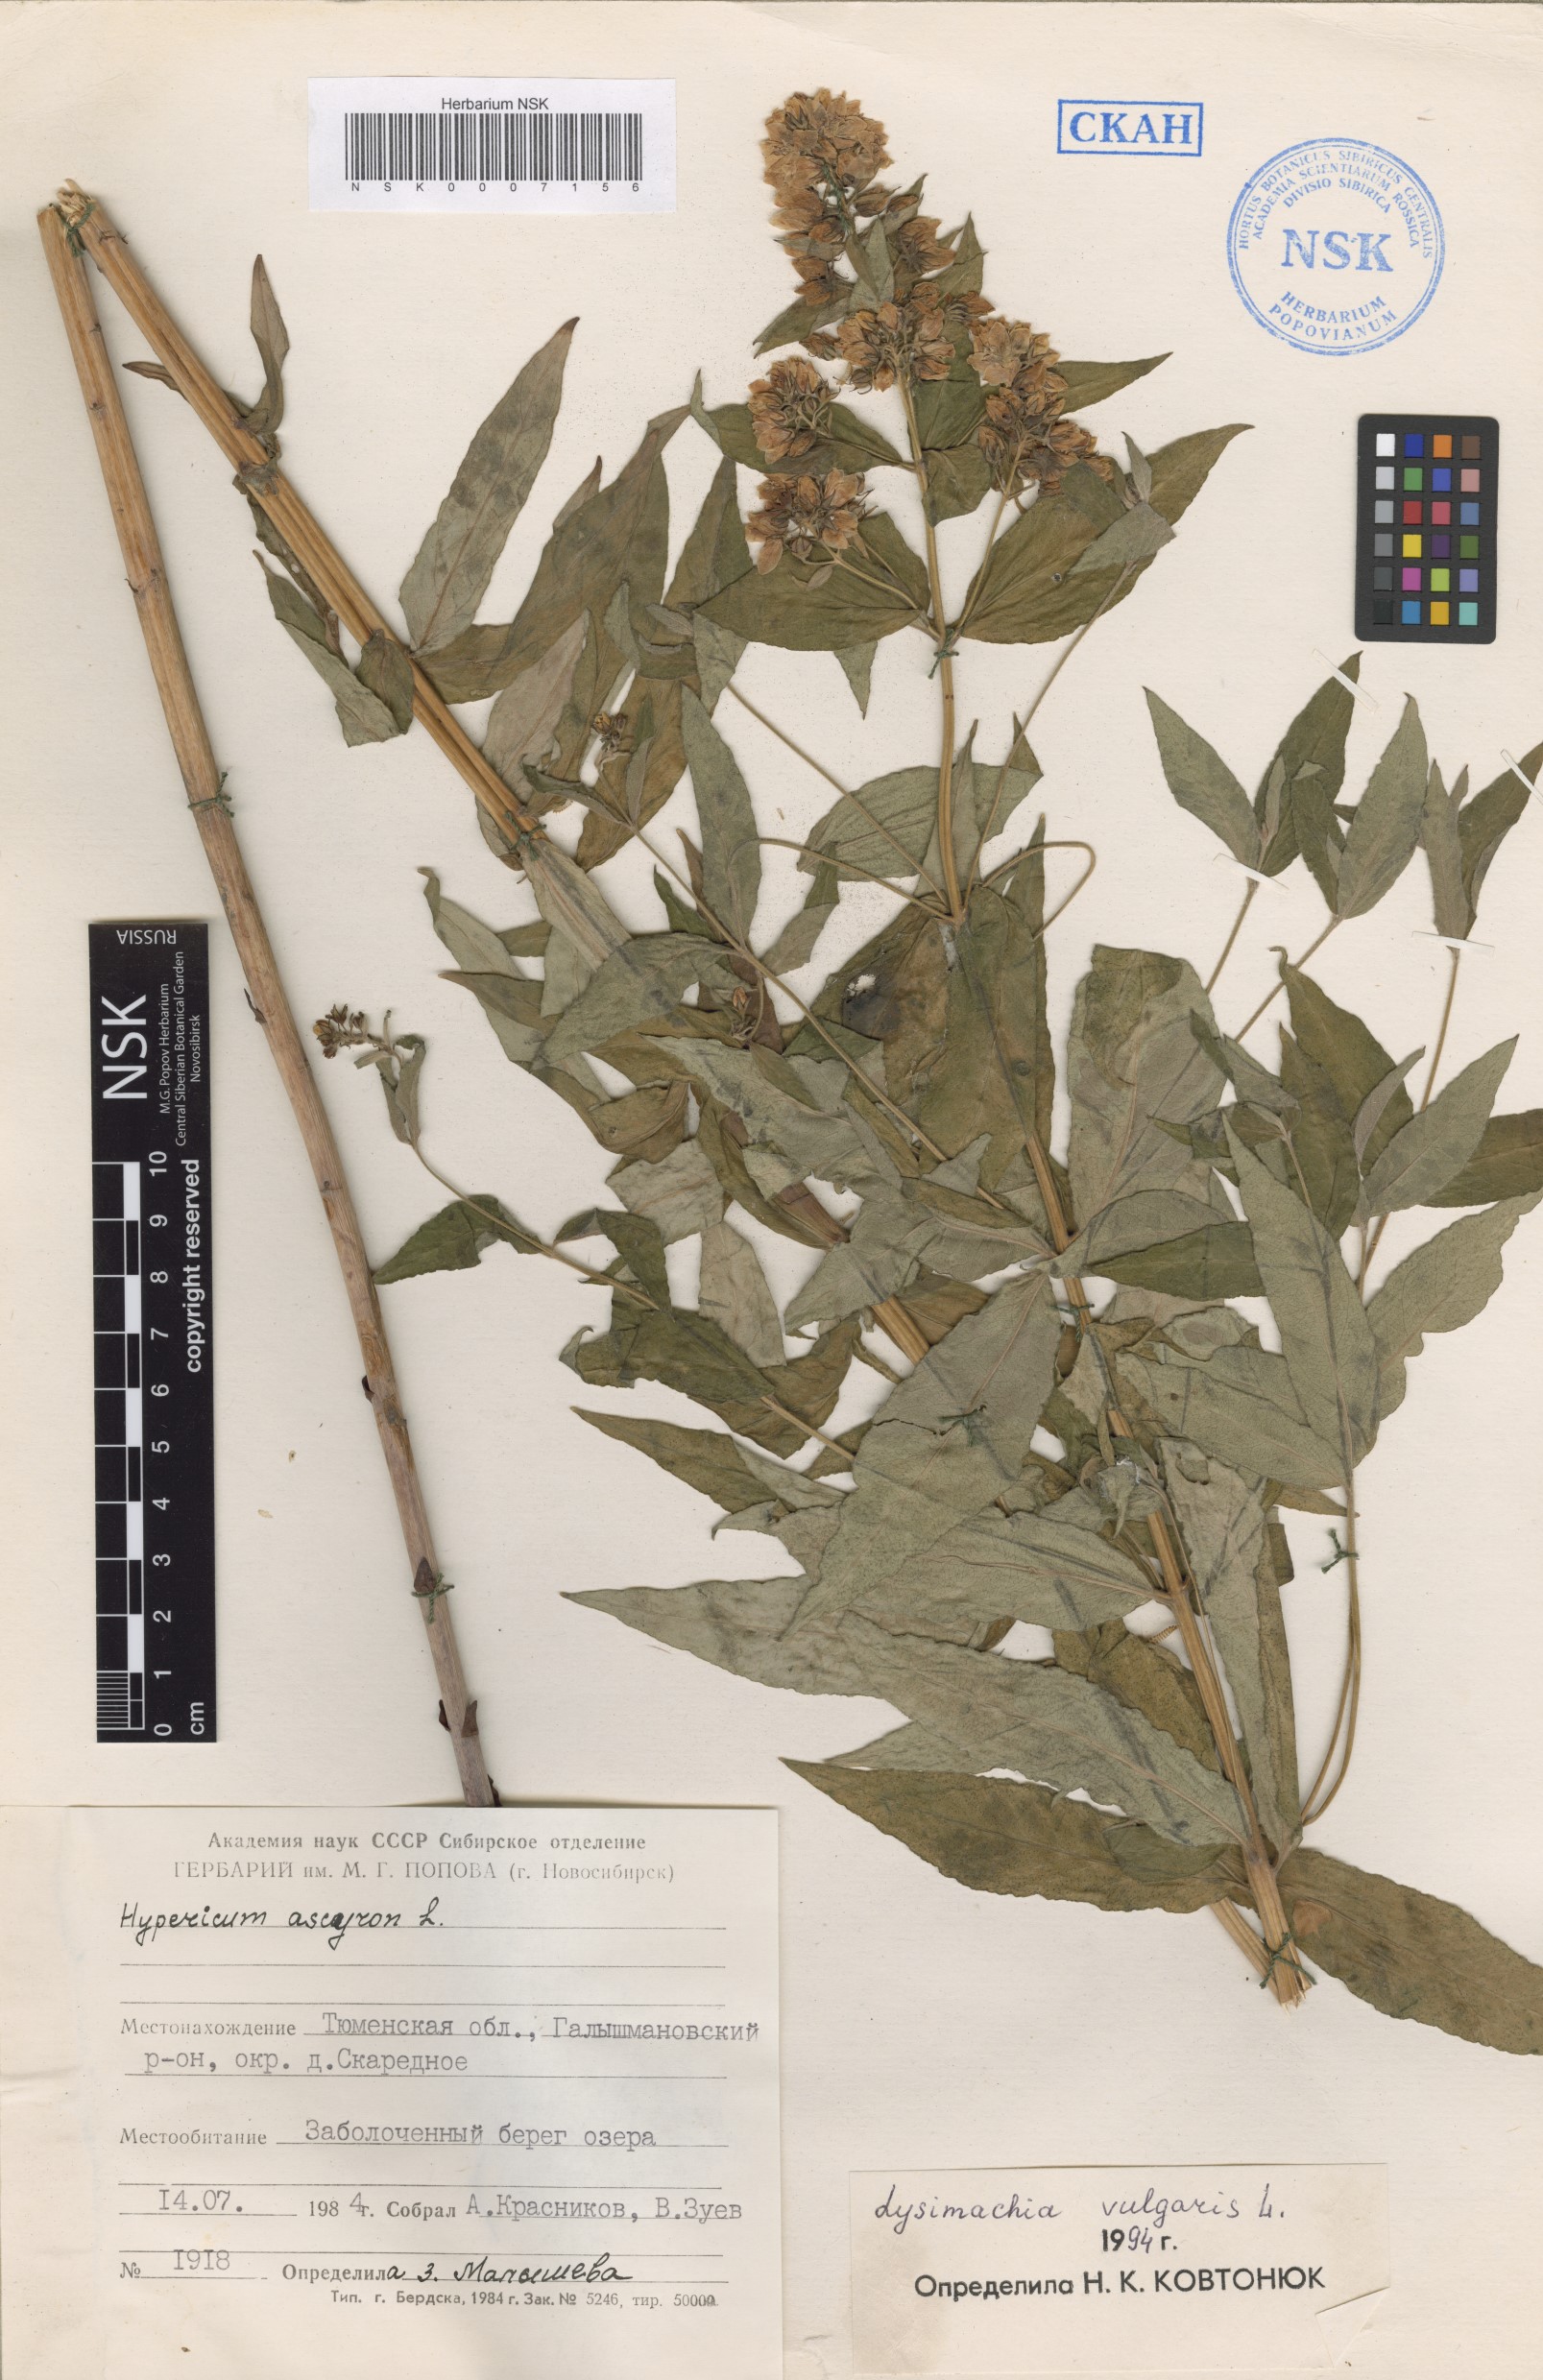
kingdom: Plantae
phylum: Tracheophyta
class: Magnoliopsida
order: Ericales
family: Primulaceae
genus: Lysimachia
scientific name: Lysimachia vulgaris
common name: Yellow loosestrife
